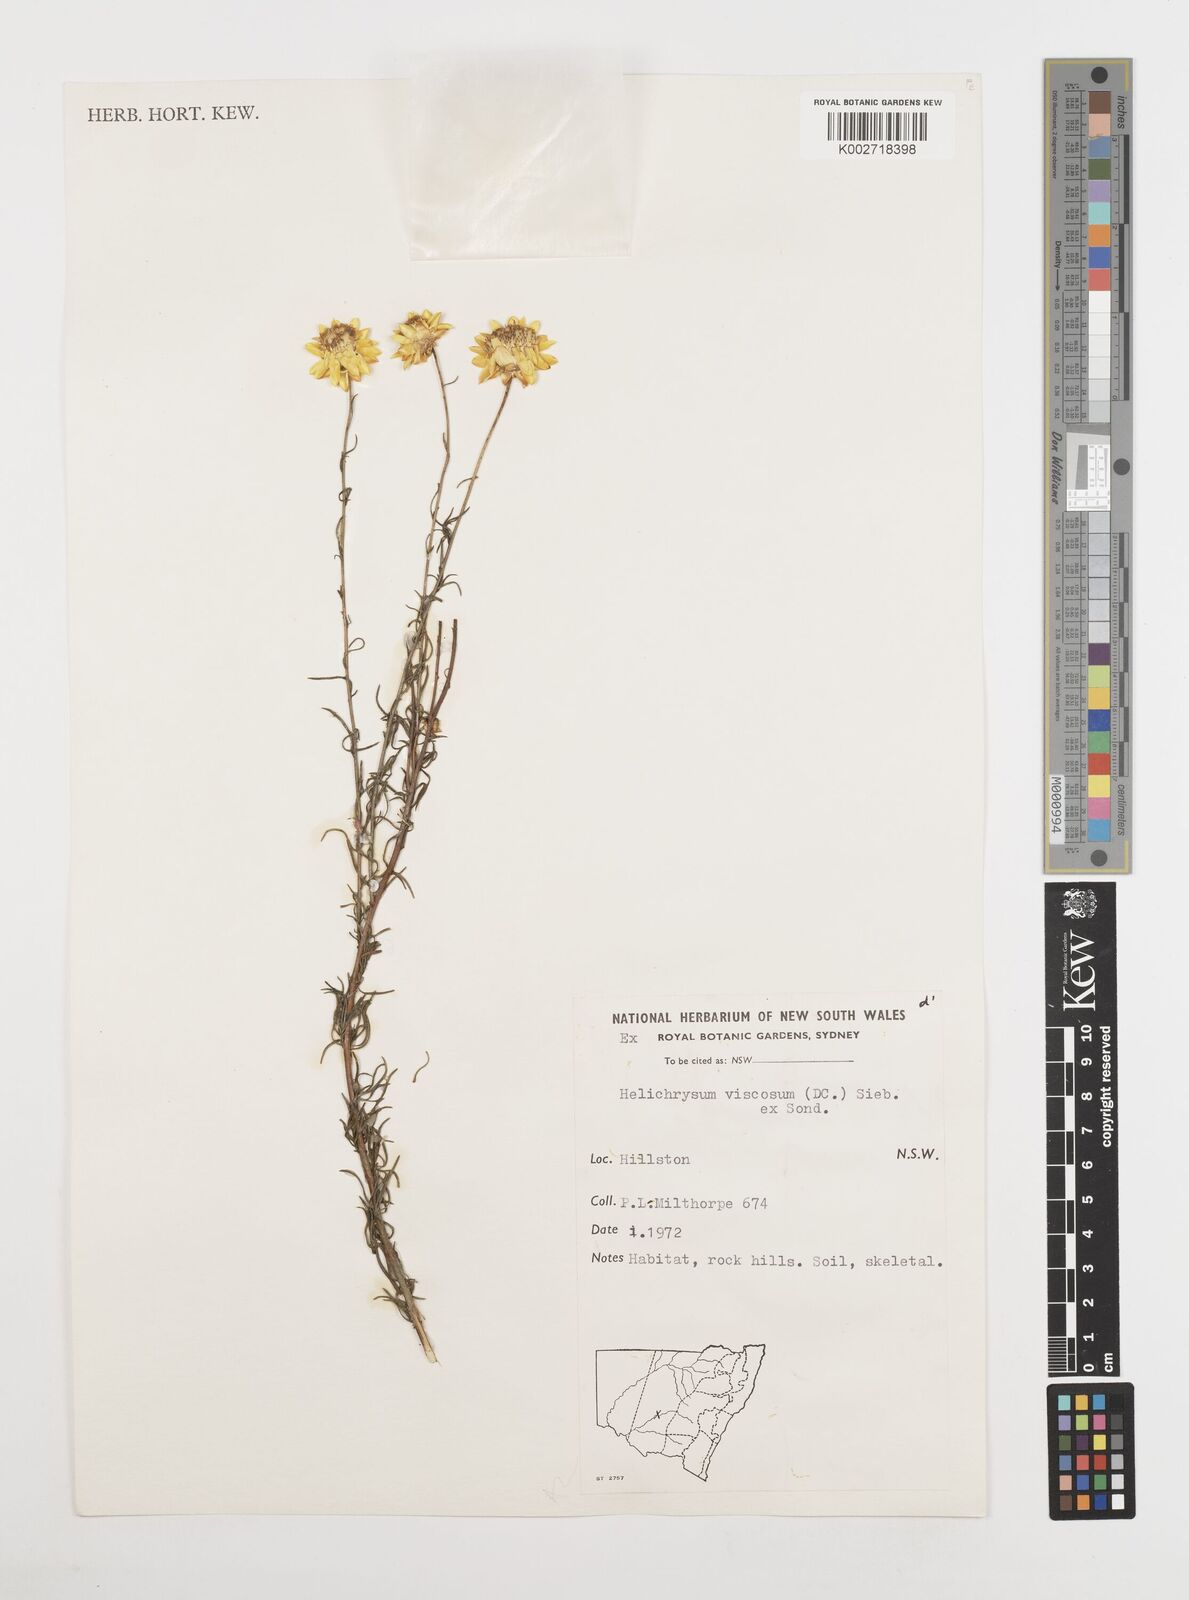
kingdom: Plantae
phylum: Tracheophyta
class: Magnoliopsida
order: Asterales
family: Asteraceae
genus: Xerochrysum
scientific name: Xerochrysum viscosum
